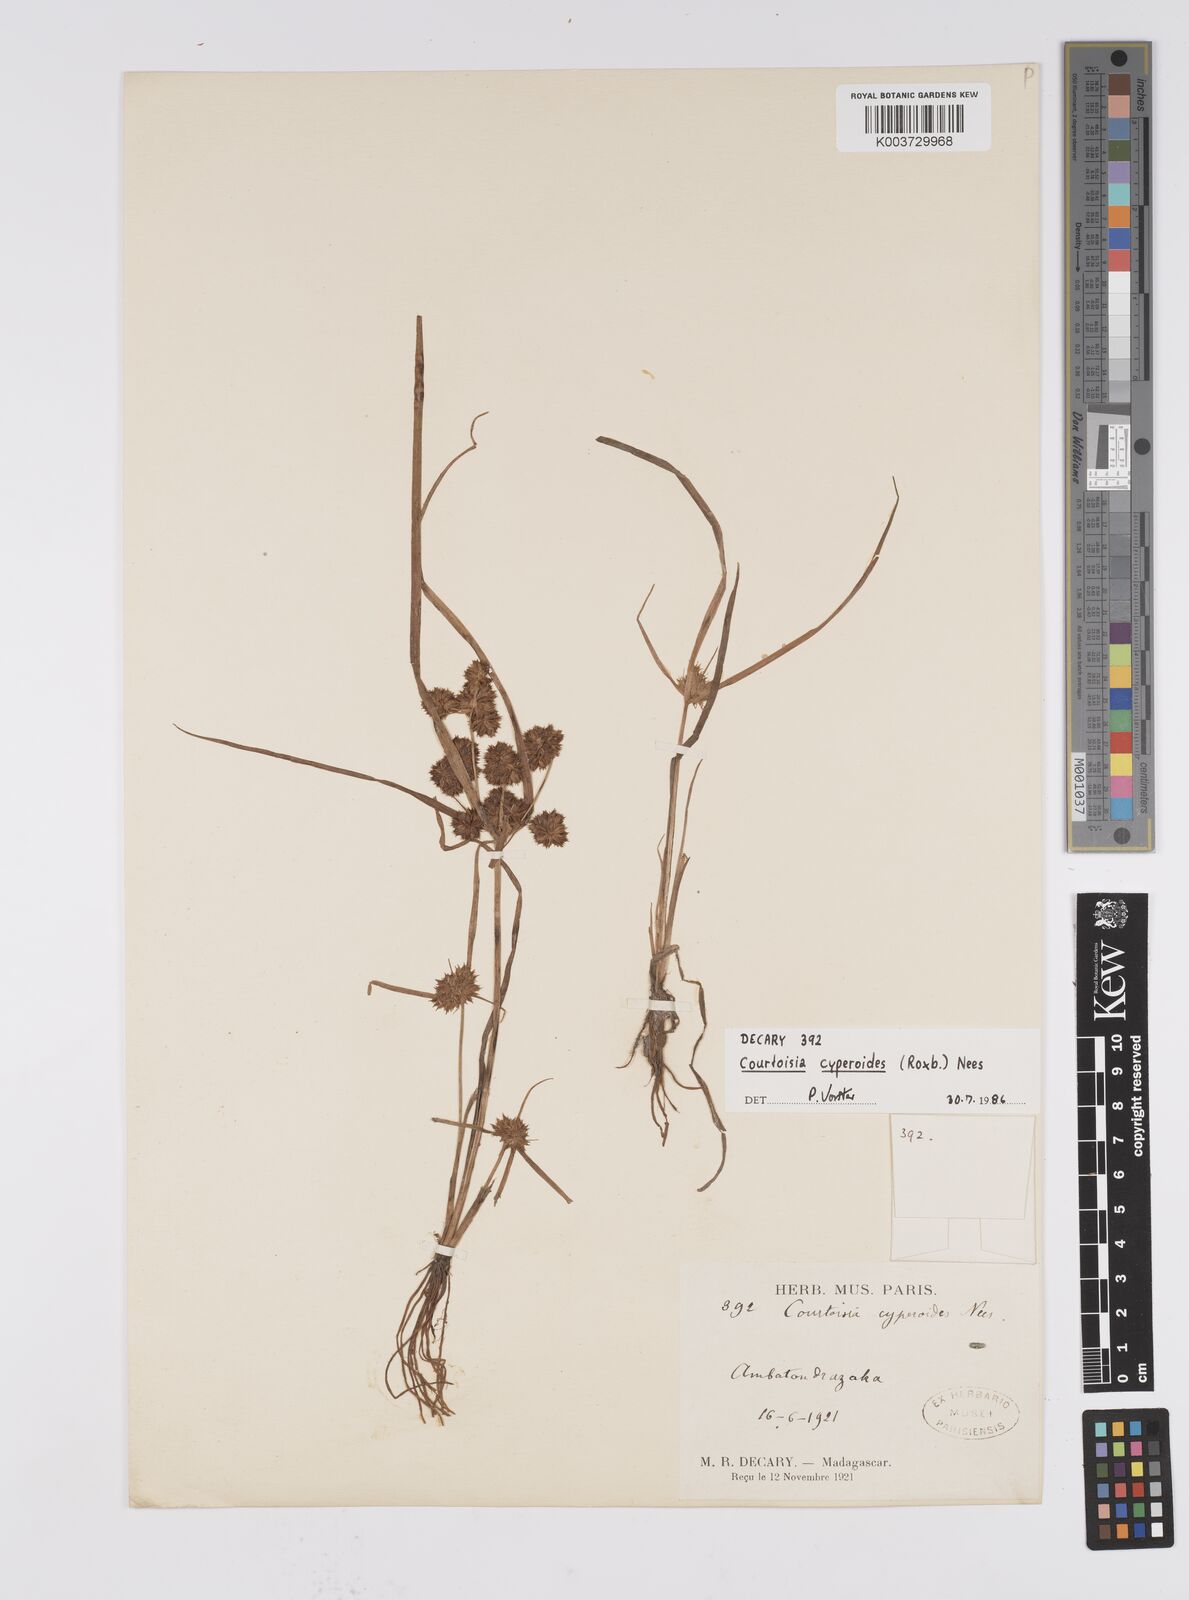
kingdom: Plantae
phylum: Tracheophyta
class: Liliopsida
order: Poales
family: Cyperaceae
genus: Cyperus
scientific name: Cyperus cyperoides
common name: Pacific island flat sedge
